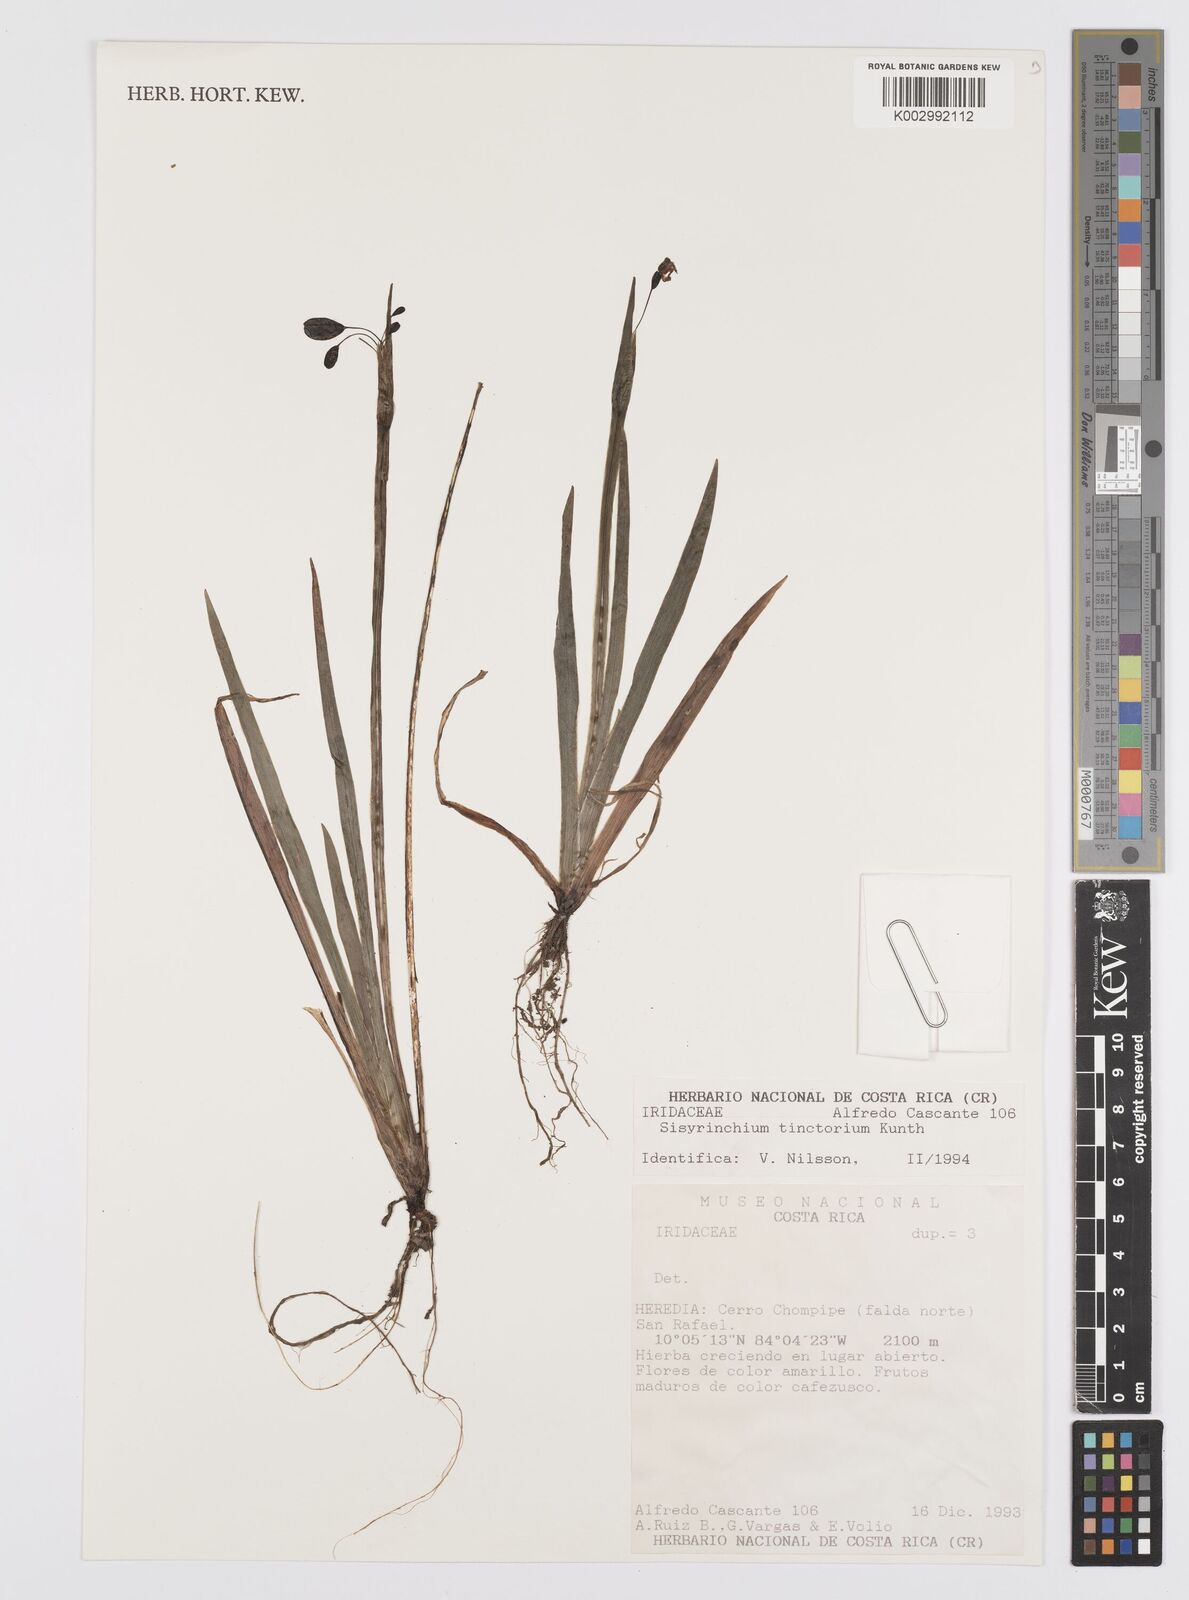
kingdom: Plantae
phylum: Tracheophyta
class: Liliopsida
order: Asparagales
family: Iridaceae
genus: Sisyrinchium
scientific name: Sisyrinchium tinctorium
